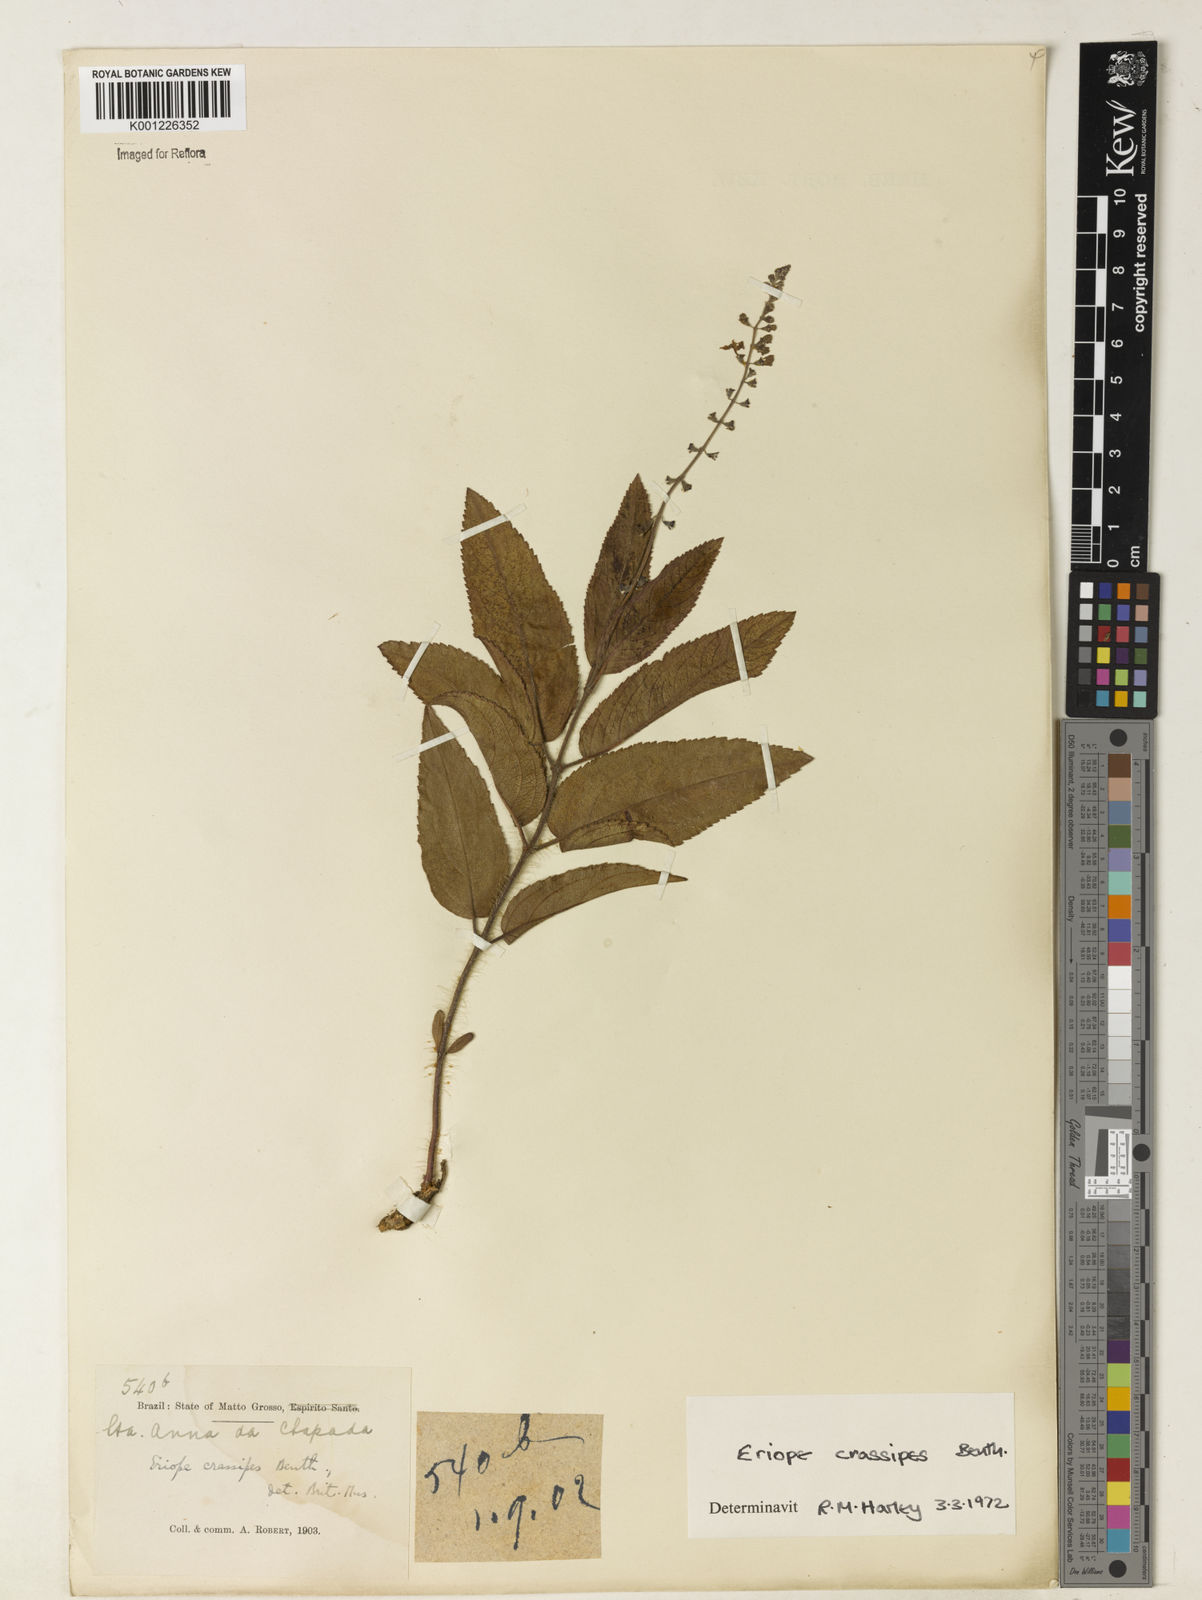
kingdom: Plantae
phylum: Tracheophyta
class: Magnoliopsida
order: Lamiales
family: Lamiaceae
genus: Eriope
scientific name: Eriope crassipes
